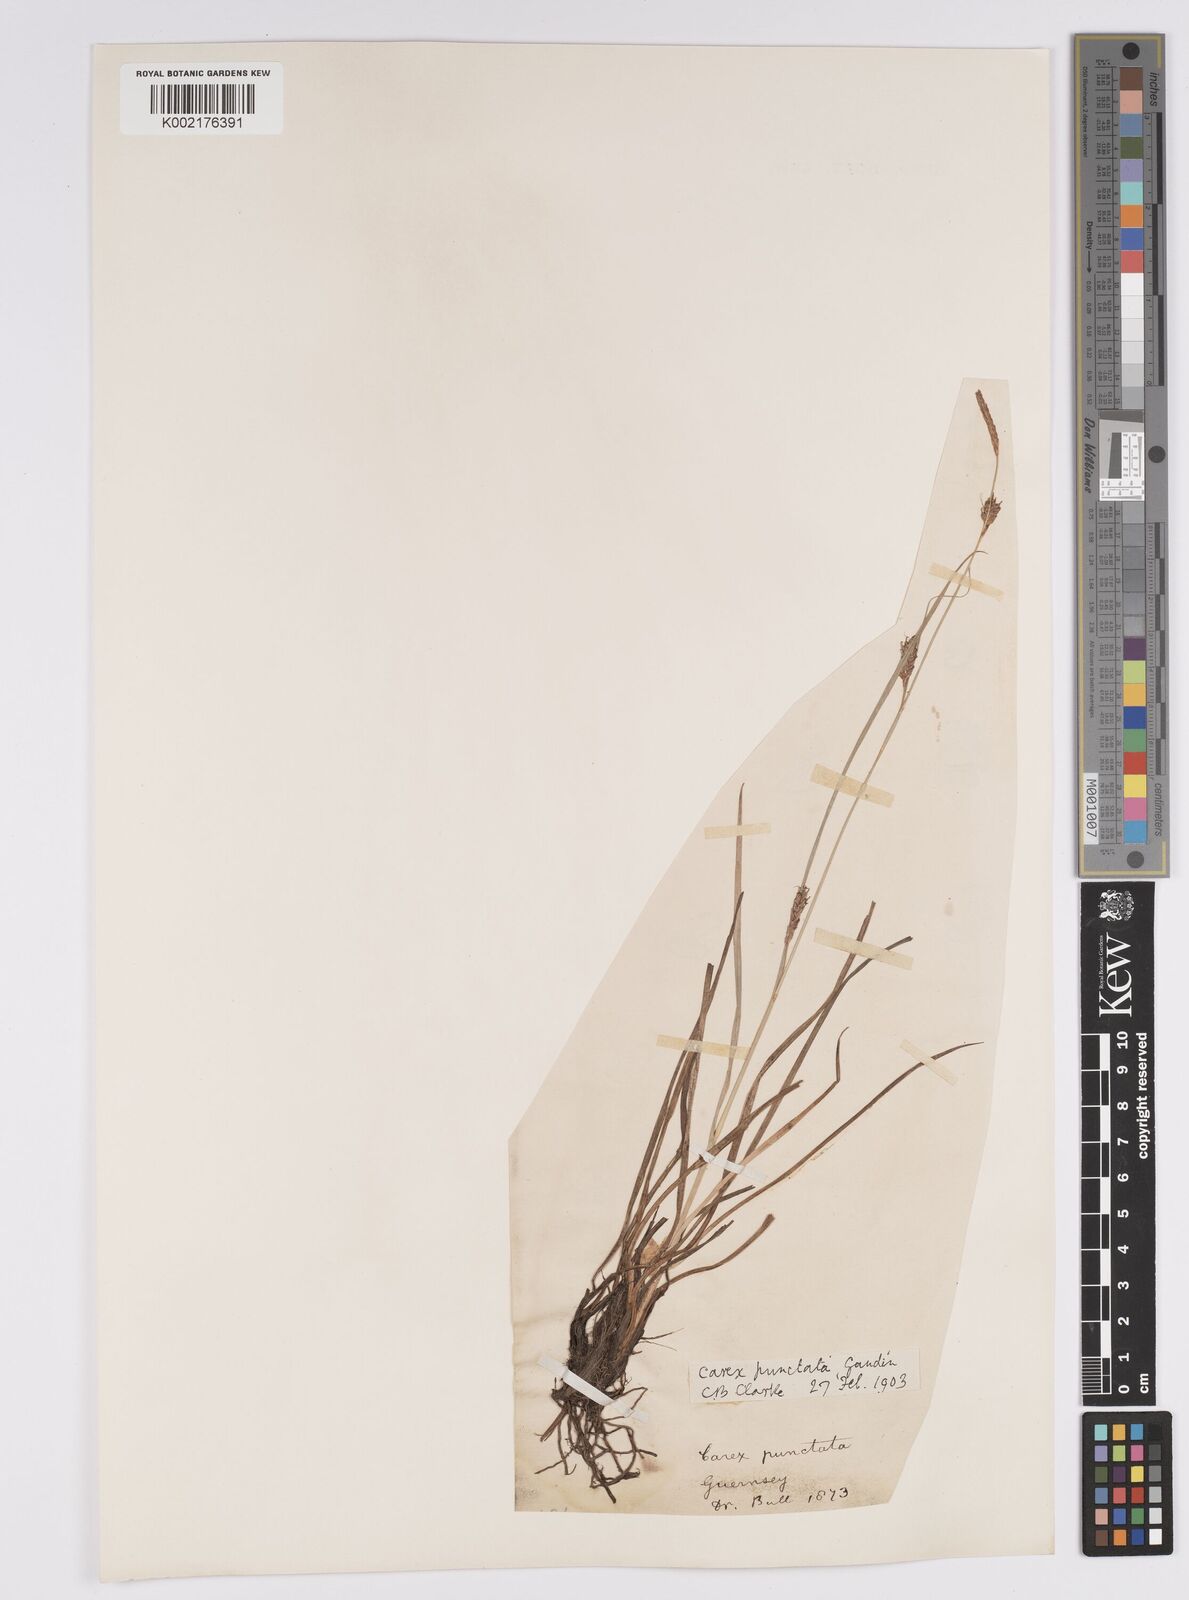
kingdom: Plantae
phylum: Tracheophyta
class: Liliopsida
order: Poales
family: Cyperaceae
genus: Carex
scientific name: Carex distans
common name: Distant sedge
